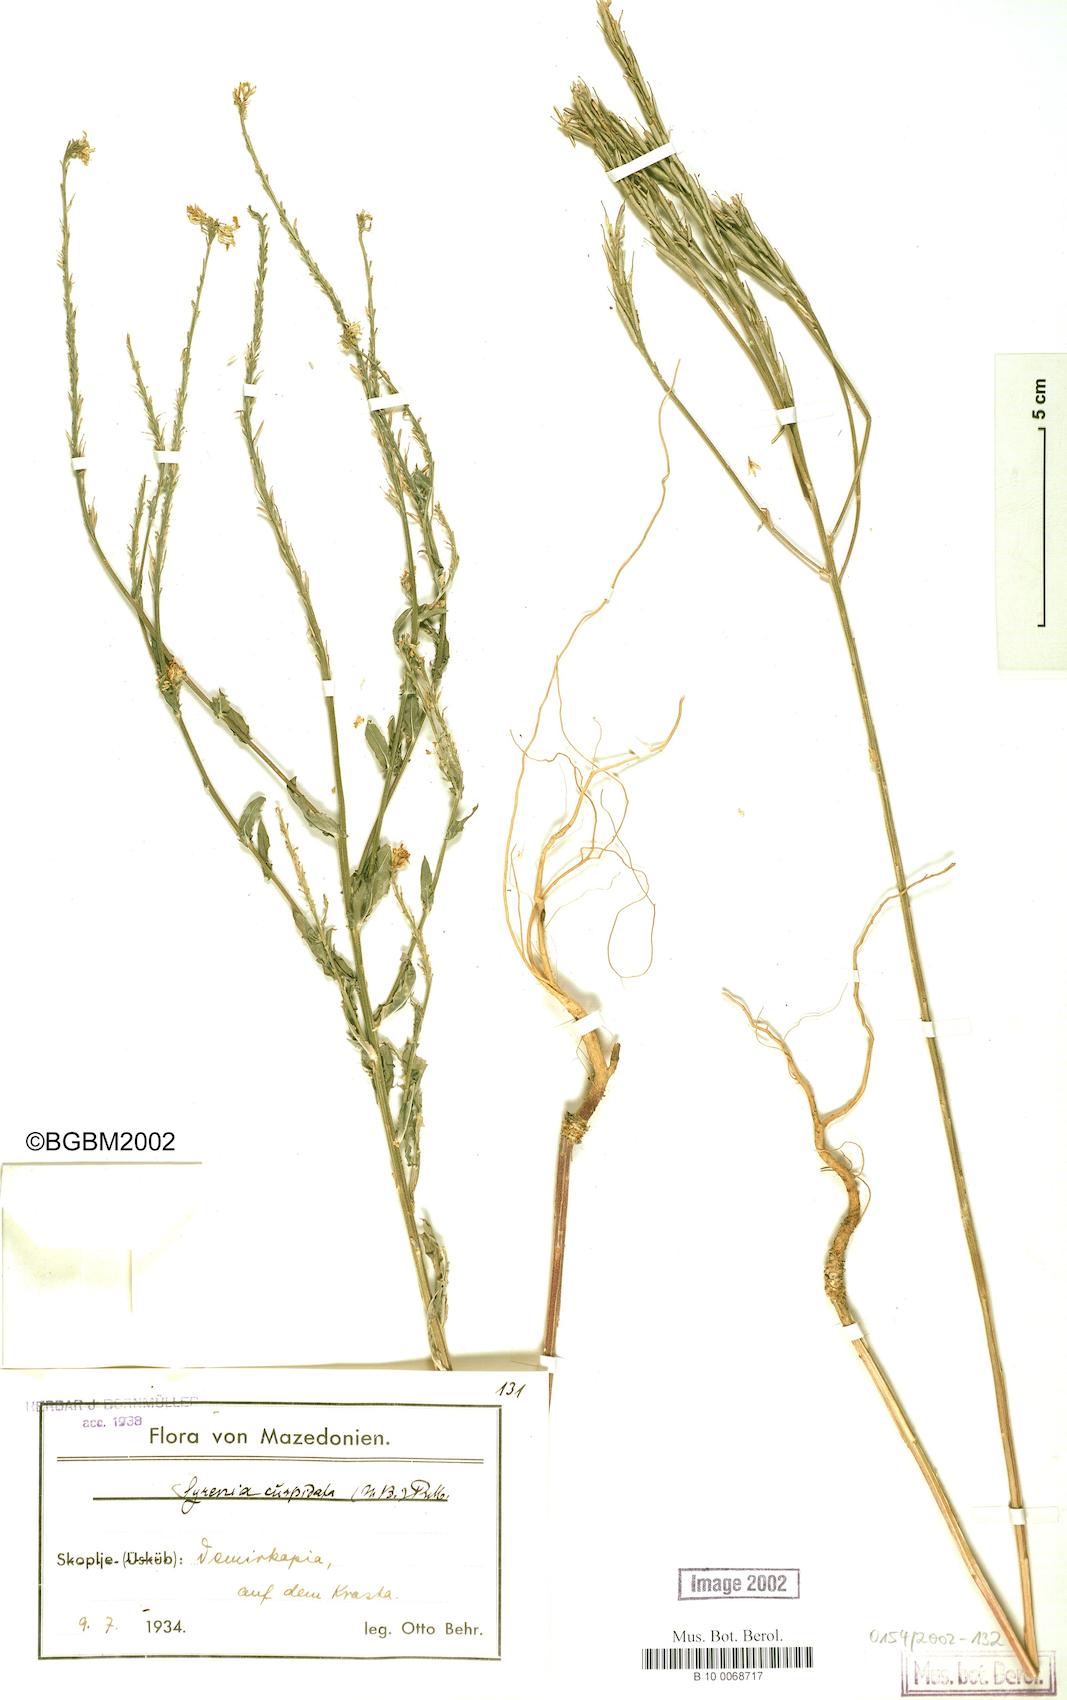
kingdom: Plantae
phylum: Tracheophyta
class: Magnoliopsida
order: Brassicales
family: Brassicaceae
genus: Erysimum
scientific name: Erysimum cuspidatum
